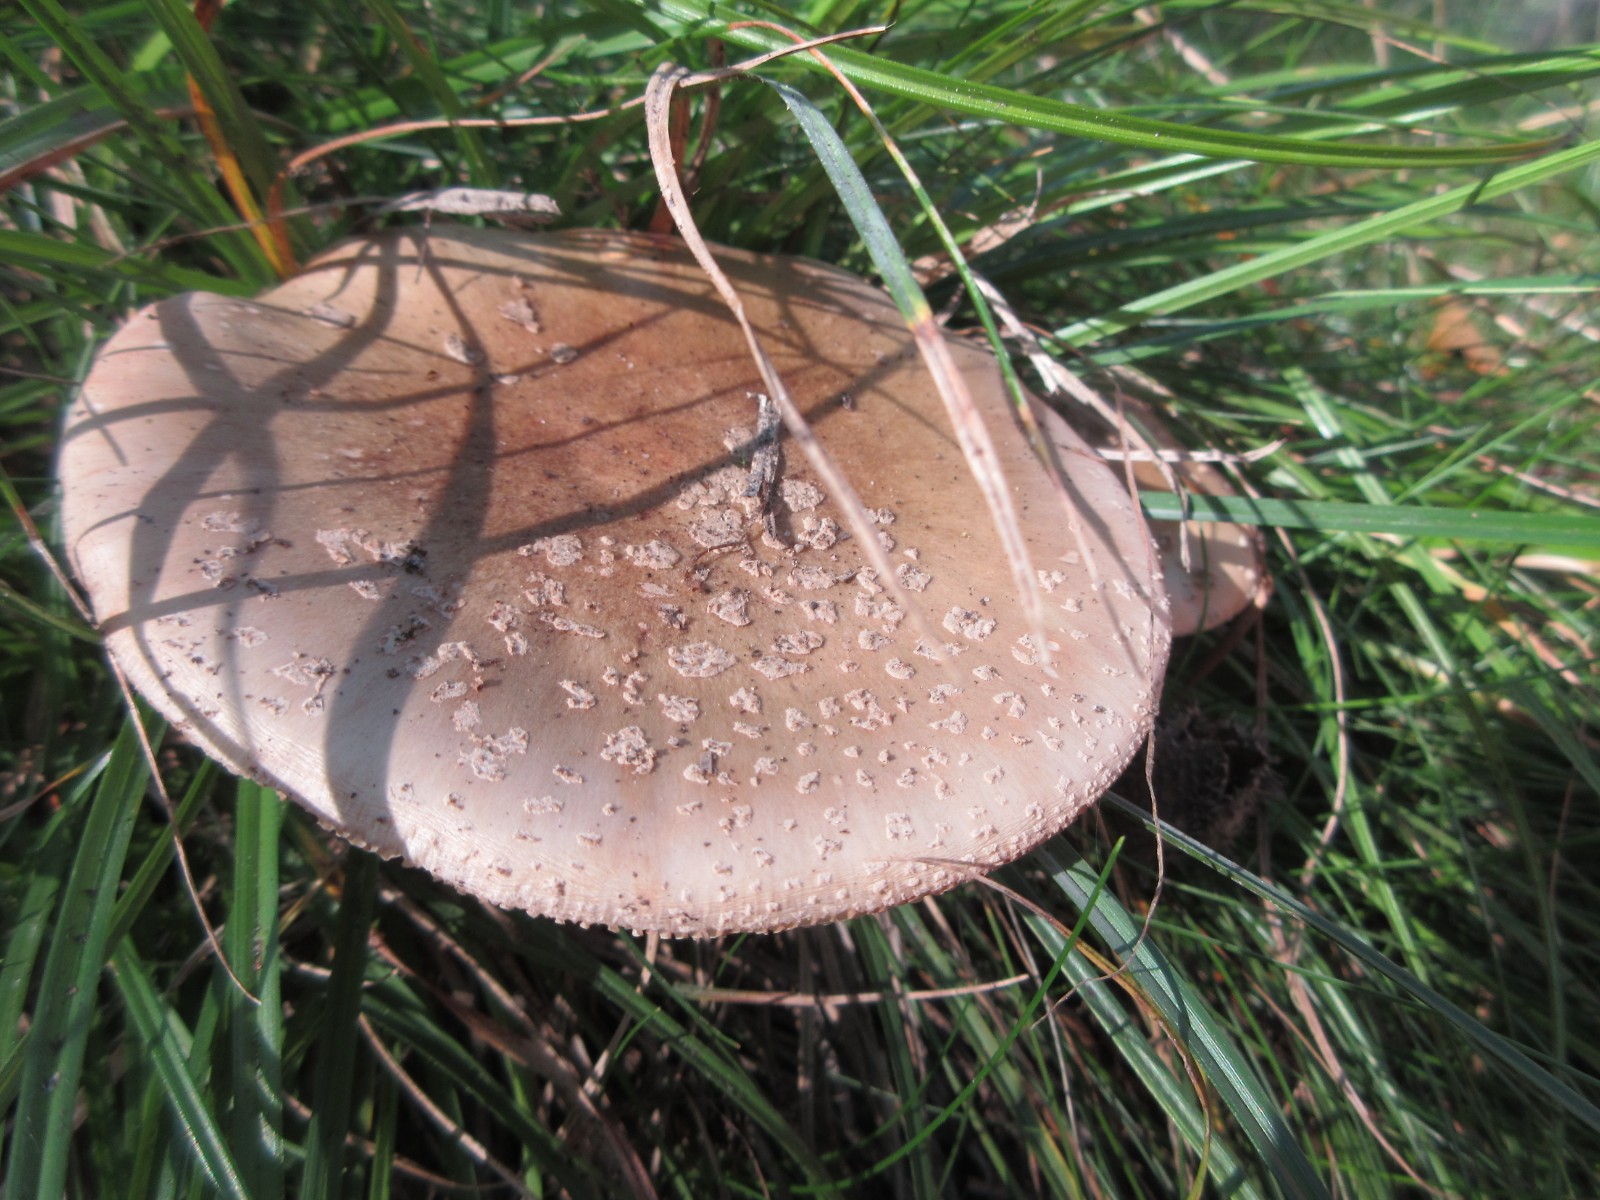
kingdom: Fungi
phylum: Basidiomycota
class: Agaricomycetes
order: Agaricales
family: Amanitaceae
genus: Amanita
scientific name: Amanita rubescens
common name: rødmende fluesvamp
